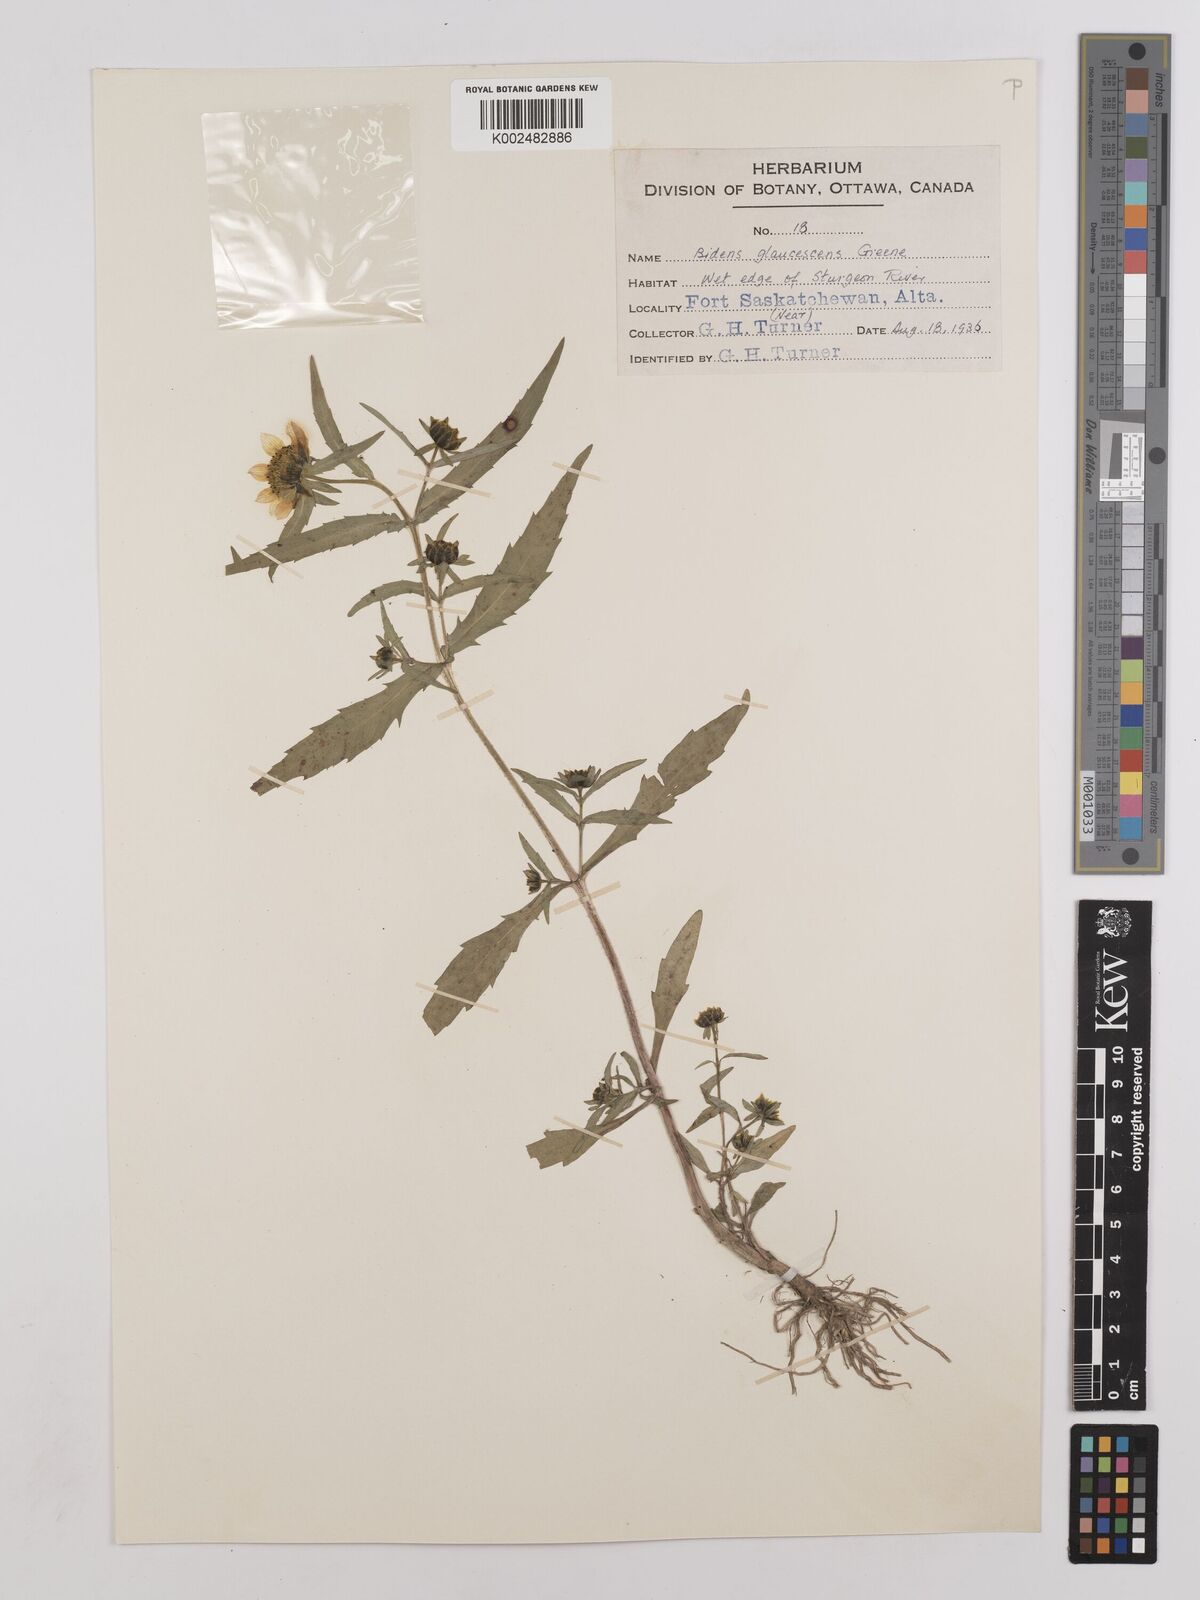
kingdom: Plantae
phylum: Tracheophyta
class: Magnoliopsida
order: Asterales
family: Asteraceae
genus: Bidens
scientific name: Bidens cernua
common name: Nodding bur-marigold
